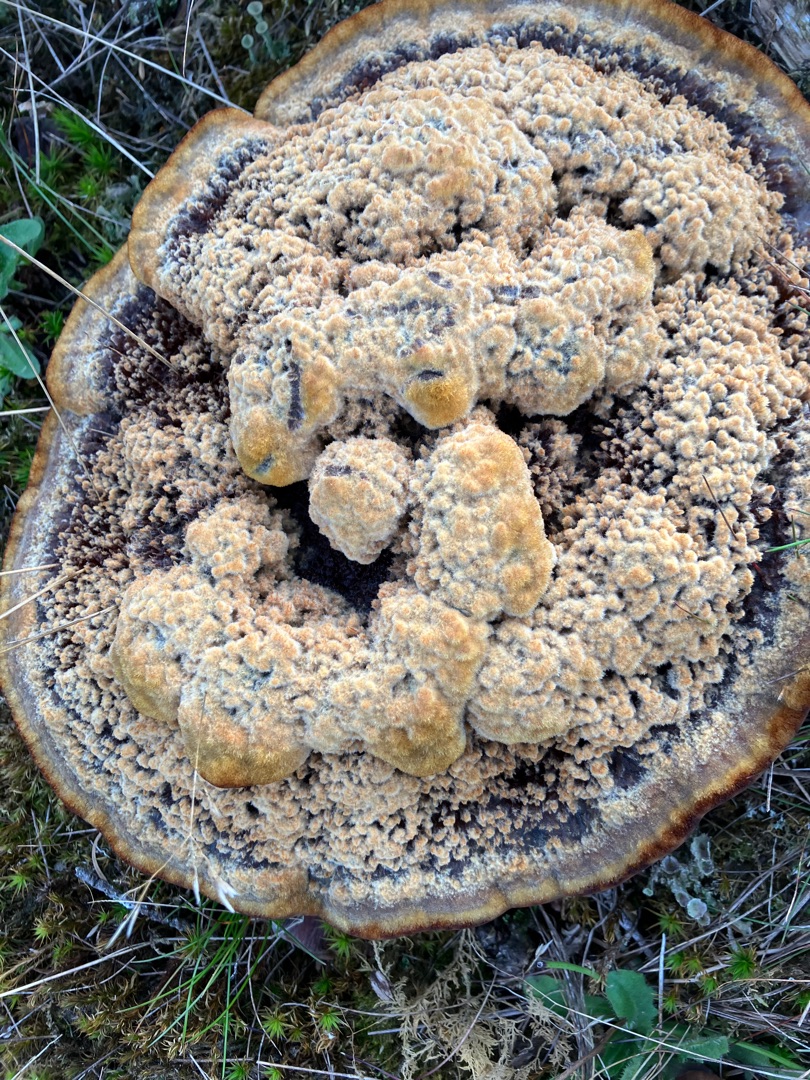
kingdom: Fungi
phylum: Basidiomycota
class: Agaricomycetes
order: Polyporales
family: Laetiporaceae
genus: Phaeolus
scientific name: Phaeolus schweinitzii
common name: Brunporesvamp
